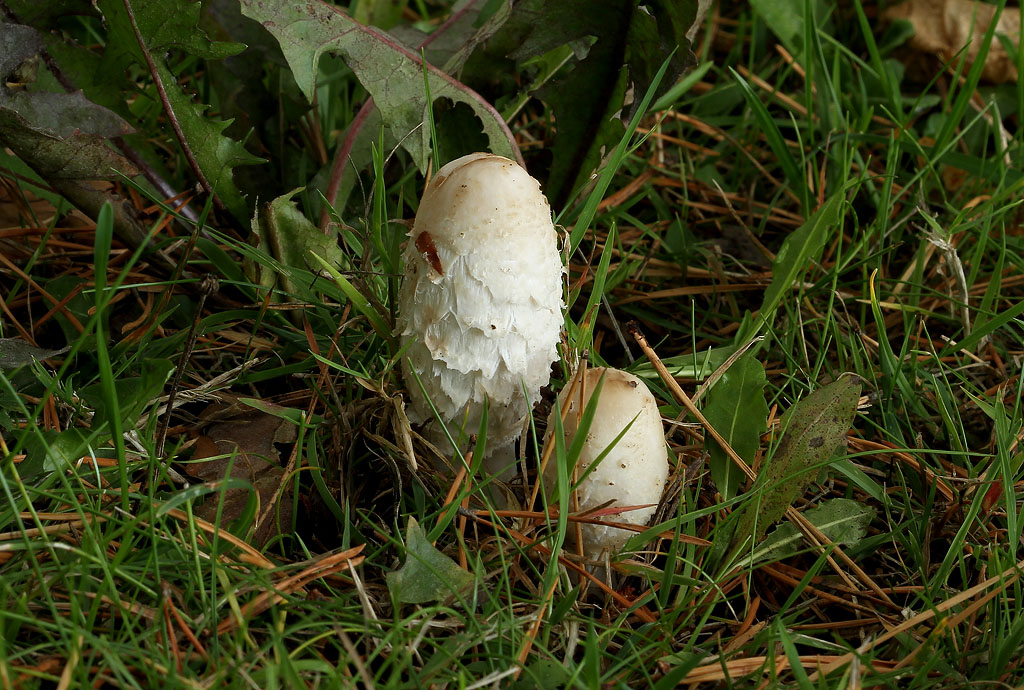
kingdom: Fungi
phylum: Basidiomycota
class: Agaricomycetes
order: Agaricales
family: Agaricaceae
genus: Coprinus
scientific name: Coprinus comatus
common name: stor parykhat
